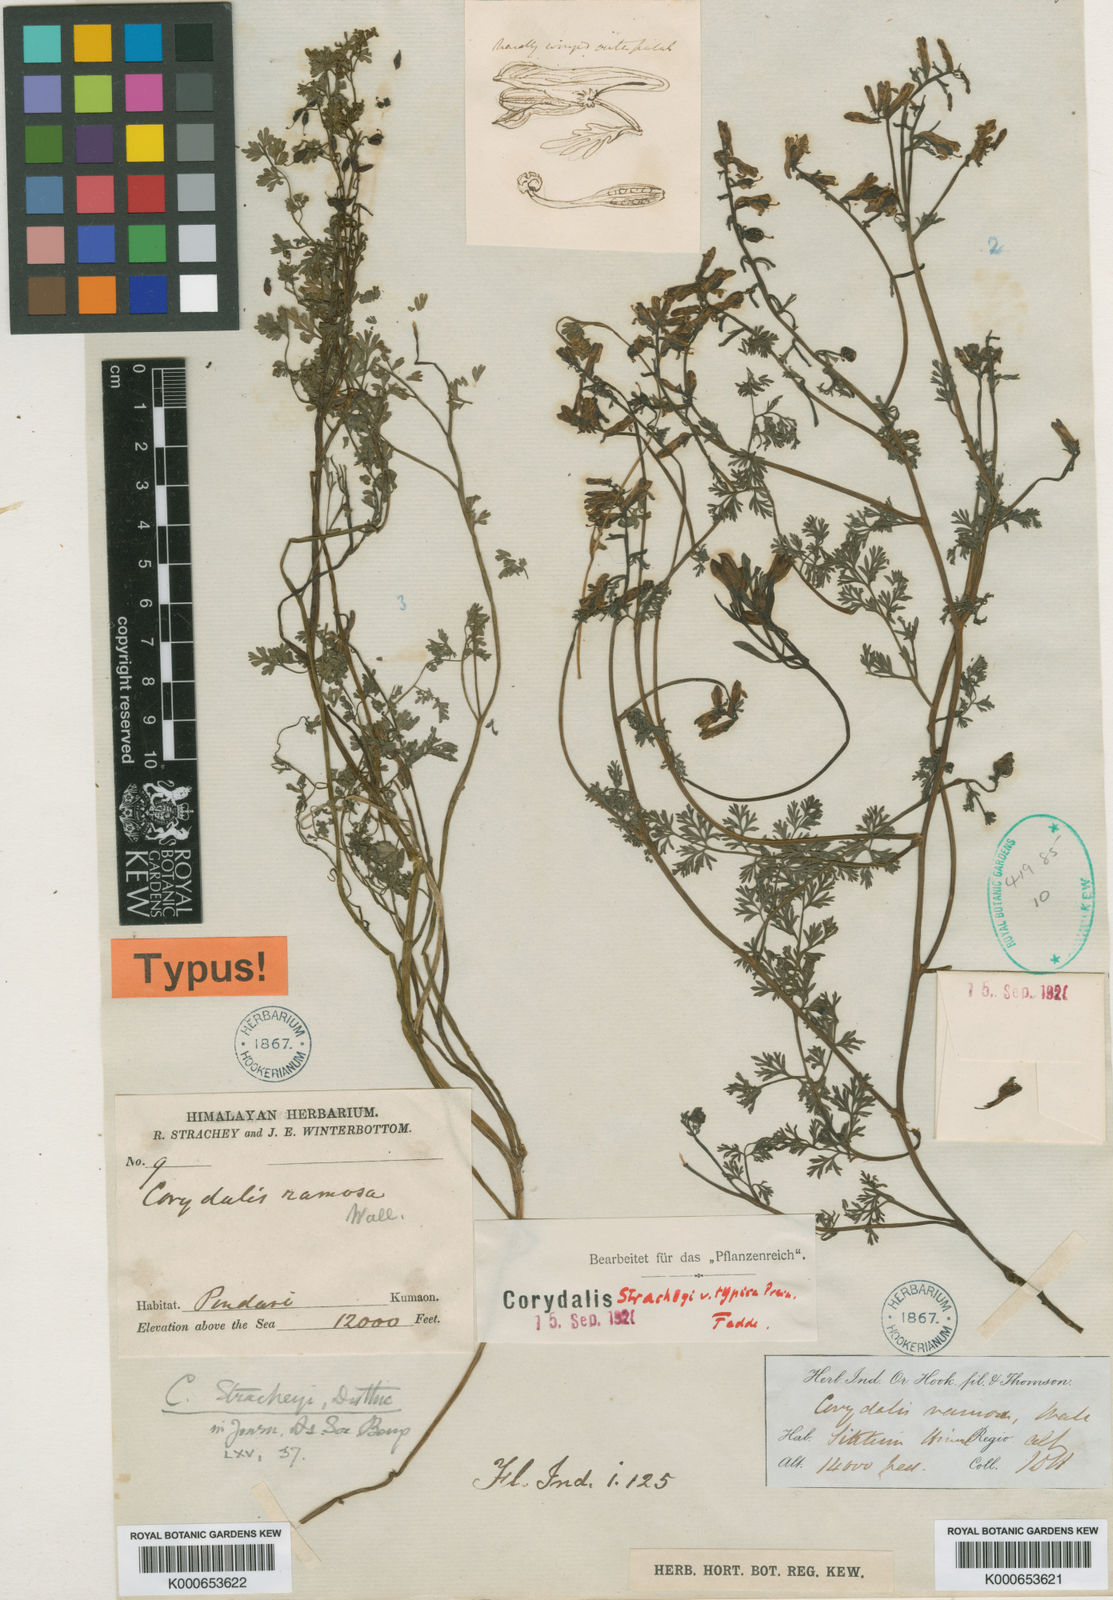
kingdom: Plantae
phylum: Tracheophyta
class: Magnoliopsida
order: Ranunculales
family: Papaveraceae
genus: Corydalis
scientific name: Corydalis stracheyi
